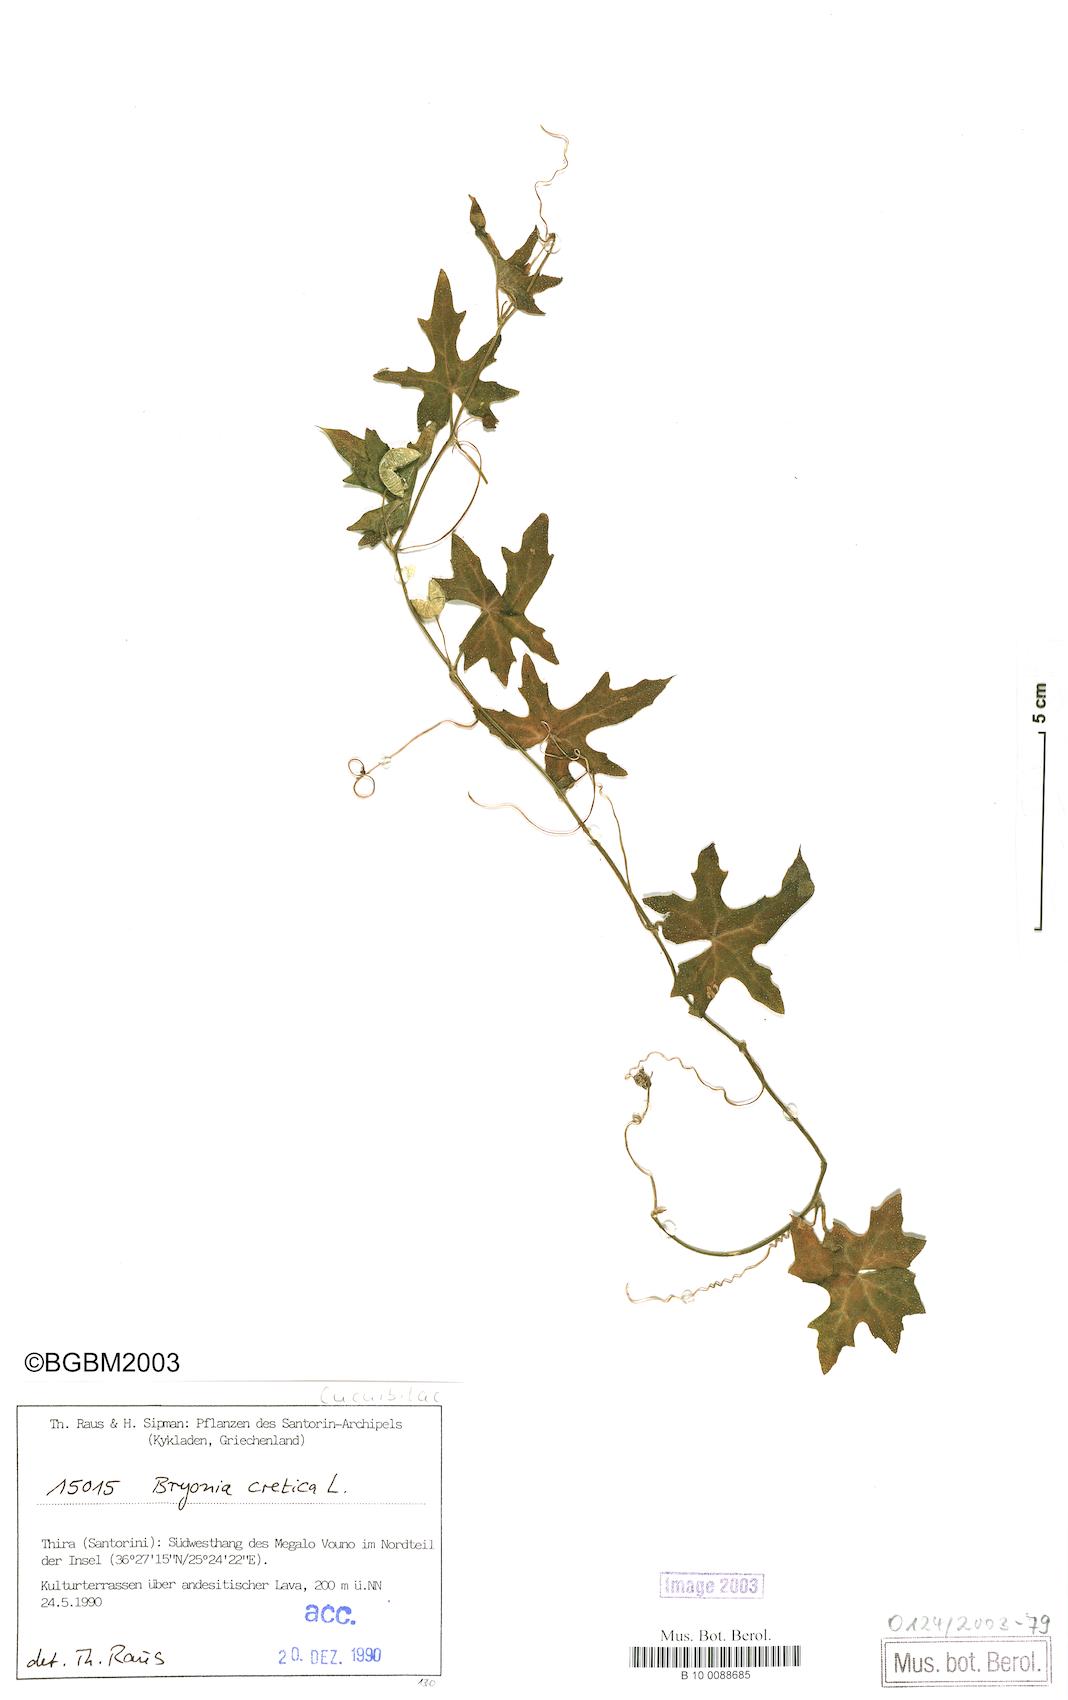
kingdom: Plantae
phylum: Tracheophyta
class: Magnoliopsida
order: Cucurbitales
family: Cucurbitaceae
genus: Bryonia
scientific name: Bryonia cretica
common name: Cretan bryony
